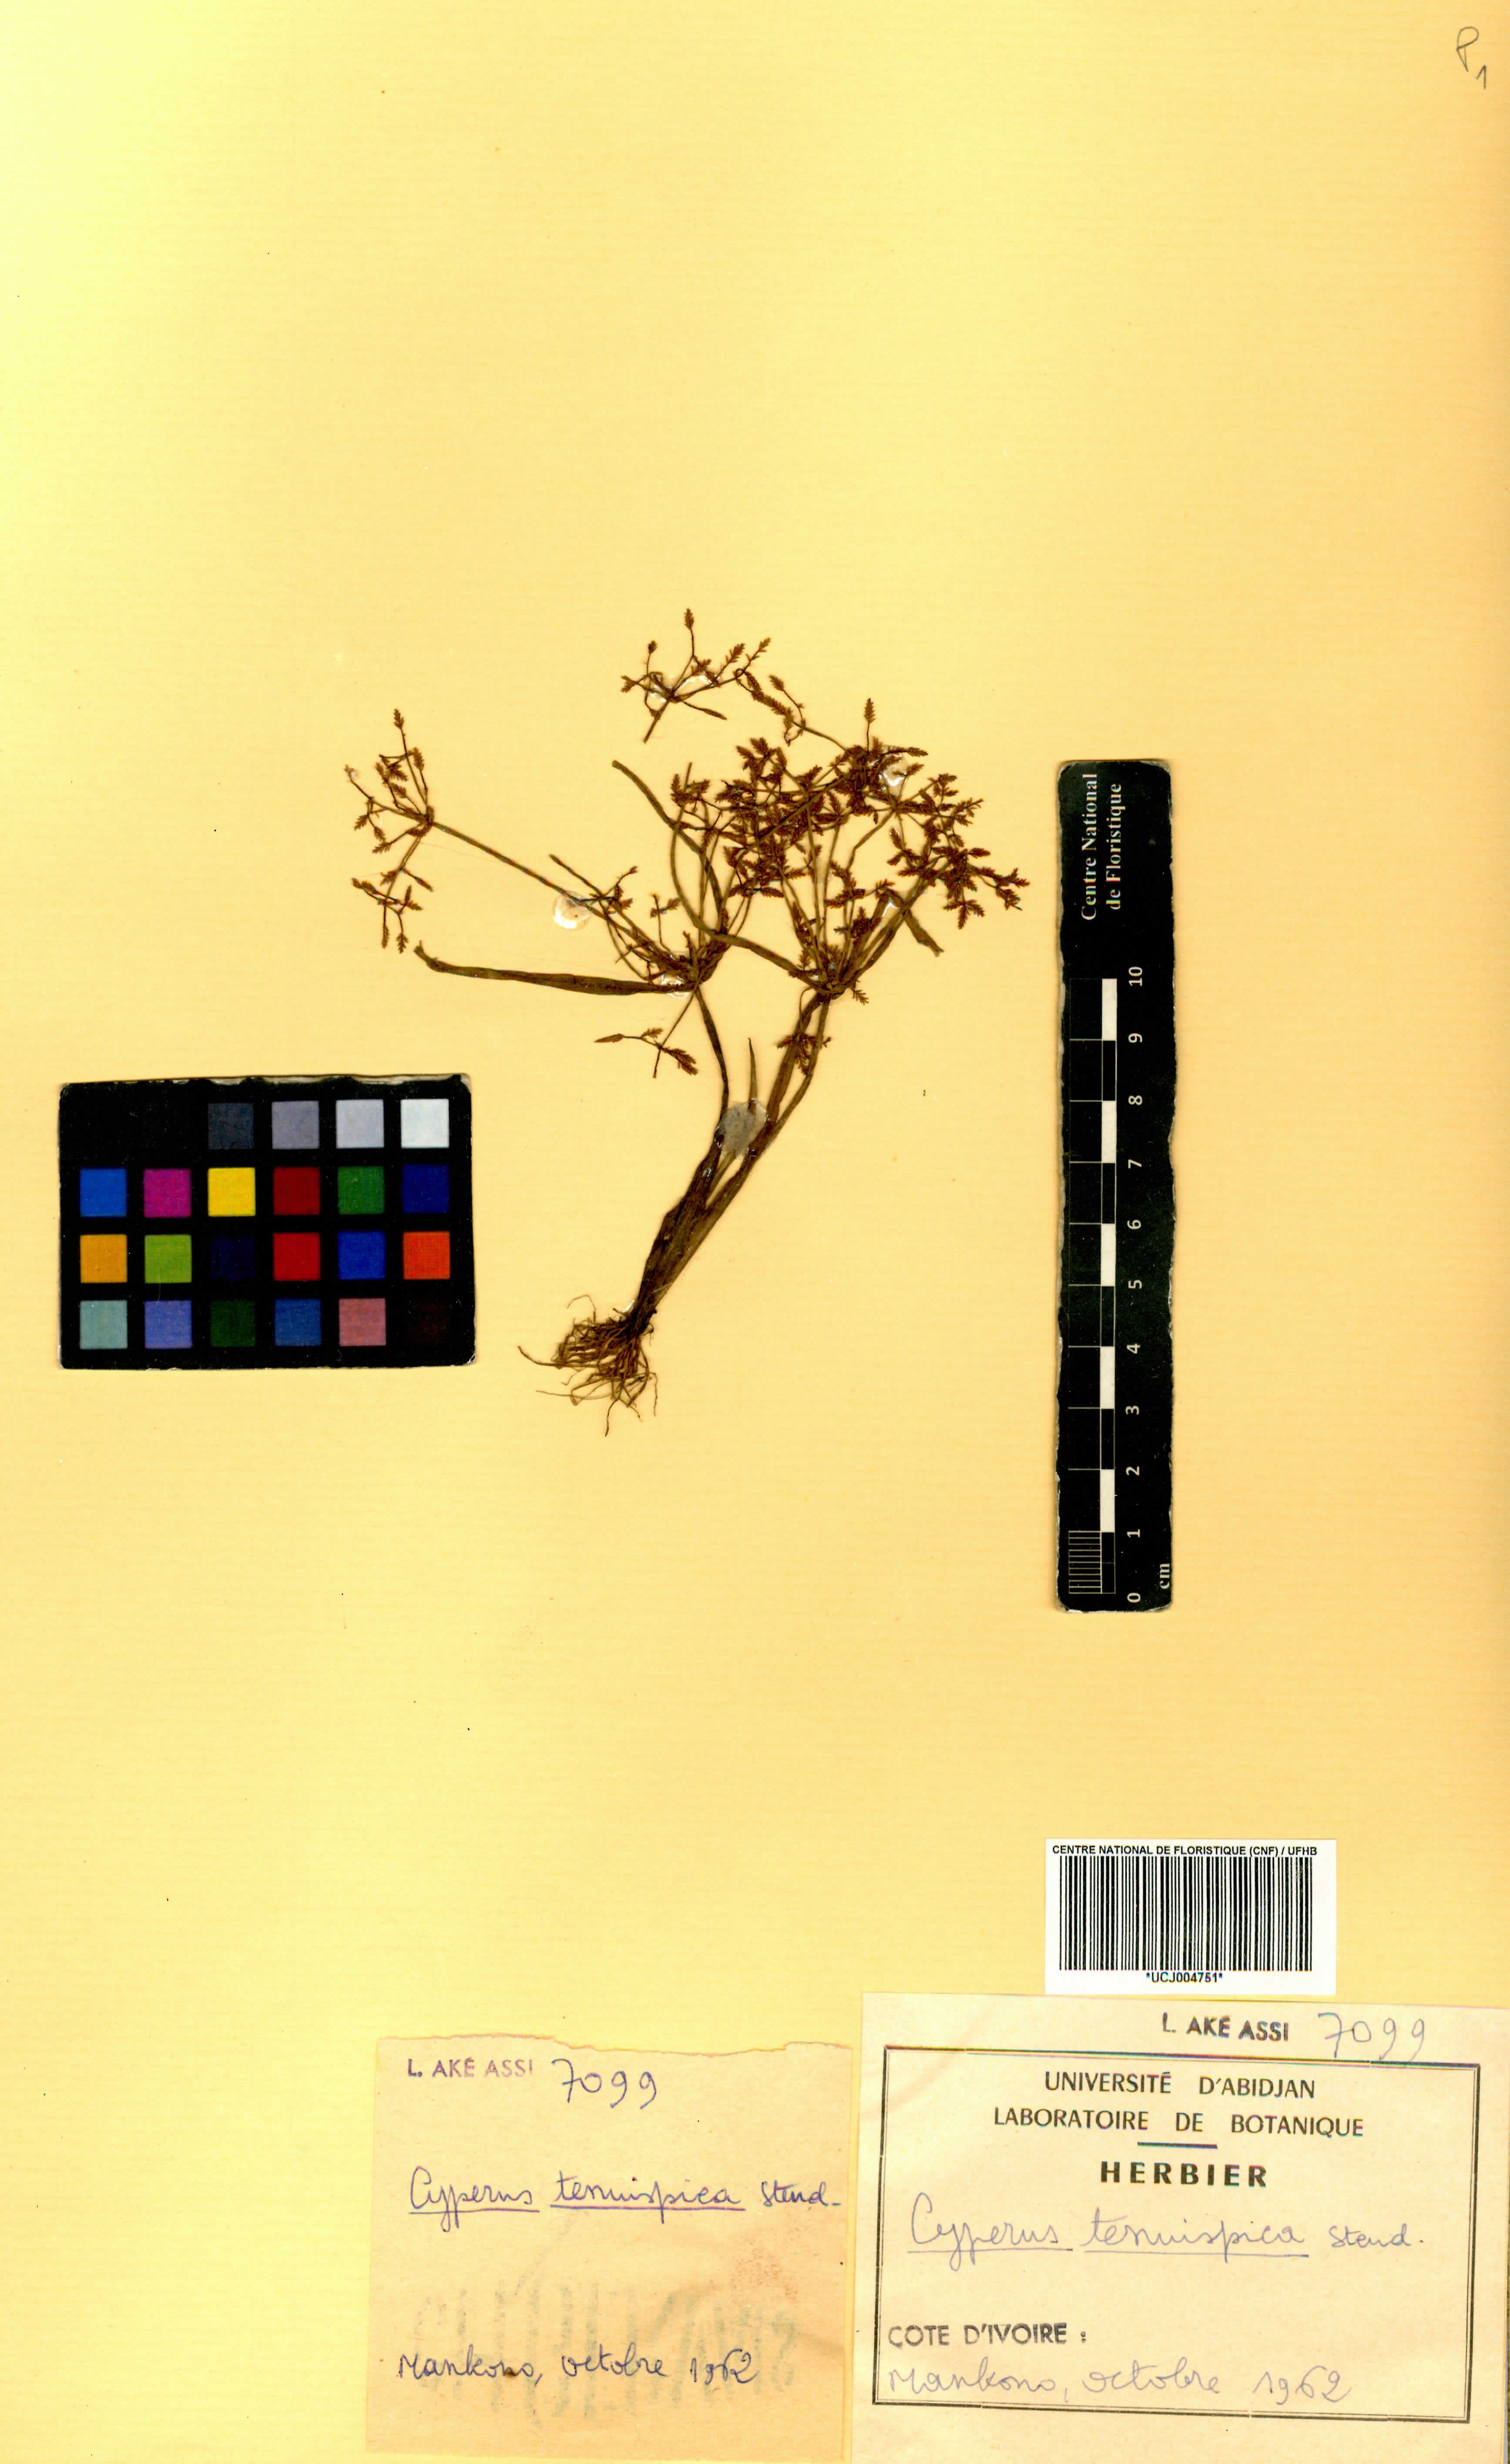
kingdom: Plantae
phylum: Tracheophyta
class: Liliopsida
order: Poales
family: Cyperaceae
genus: Cyperus
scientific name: Cyperus tenuispica
